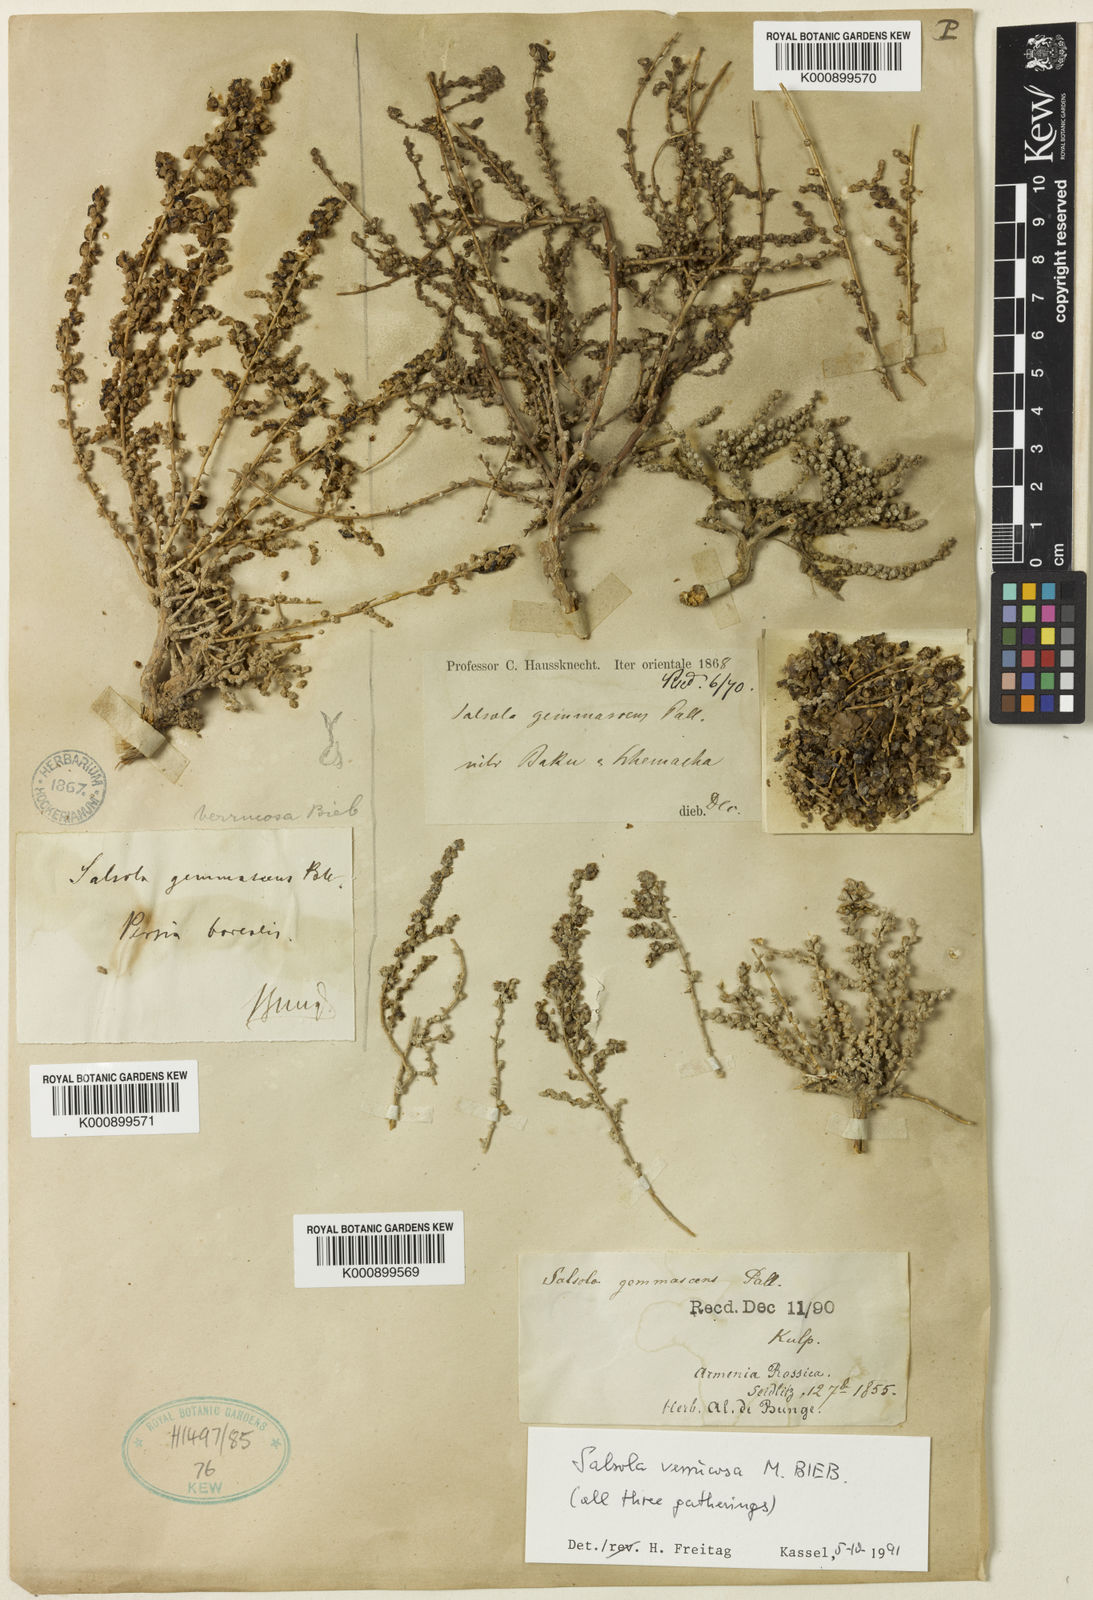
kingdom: Plantae
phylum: Tracheophyta
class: Magnoliopsida
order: Caryophyllales
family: Amaranthaceae
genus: Nitrosalsola
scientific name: Nitrosalsola dendroides
